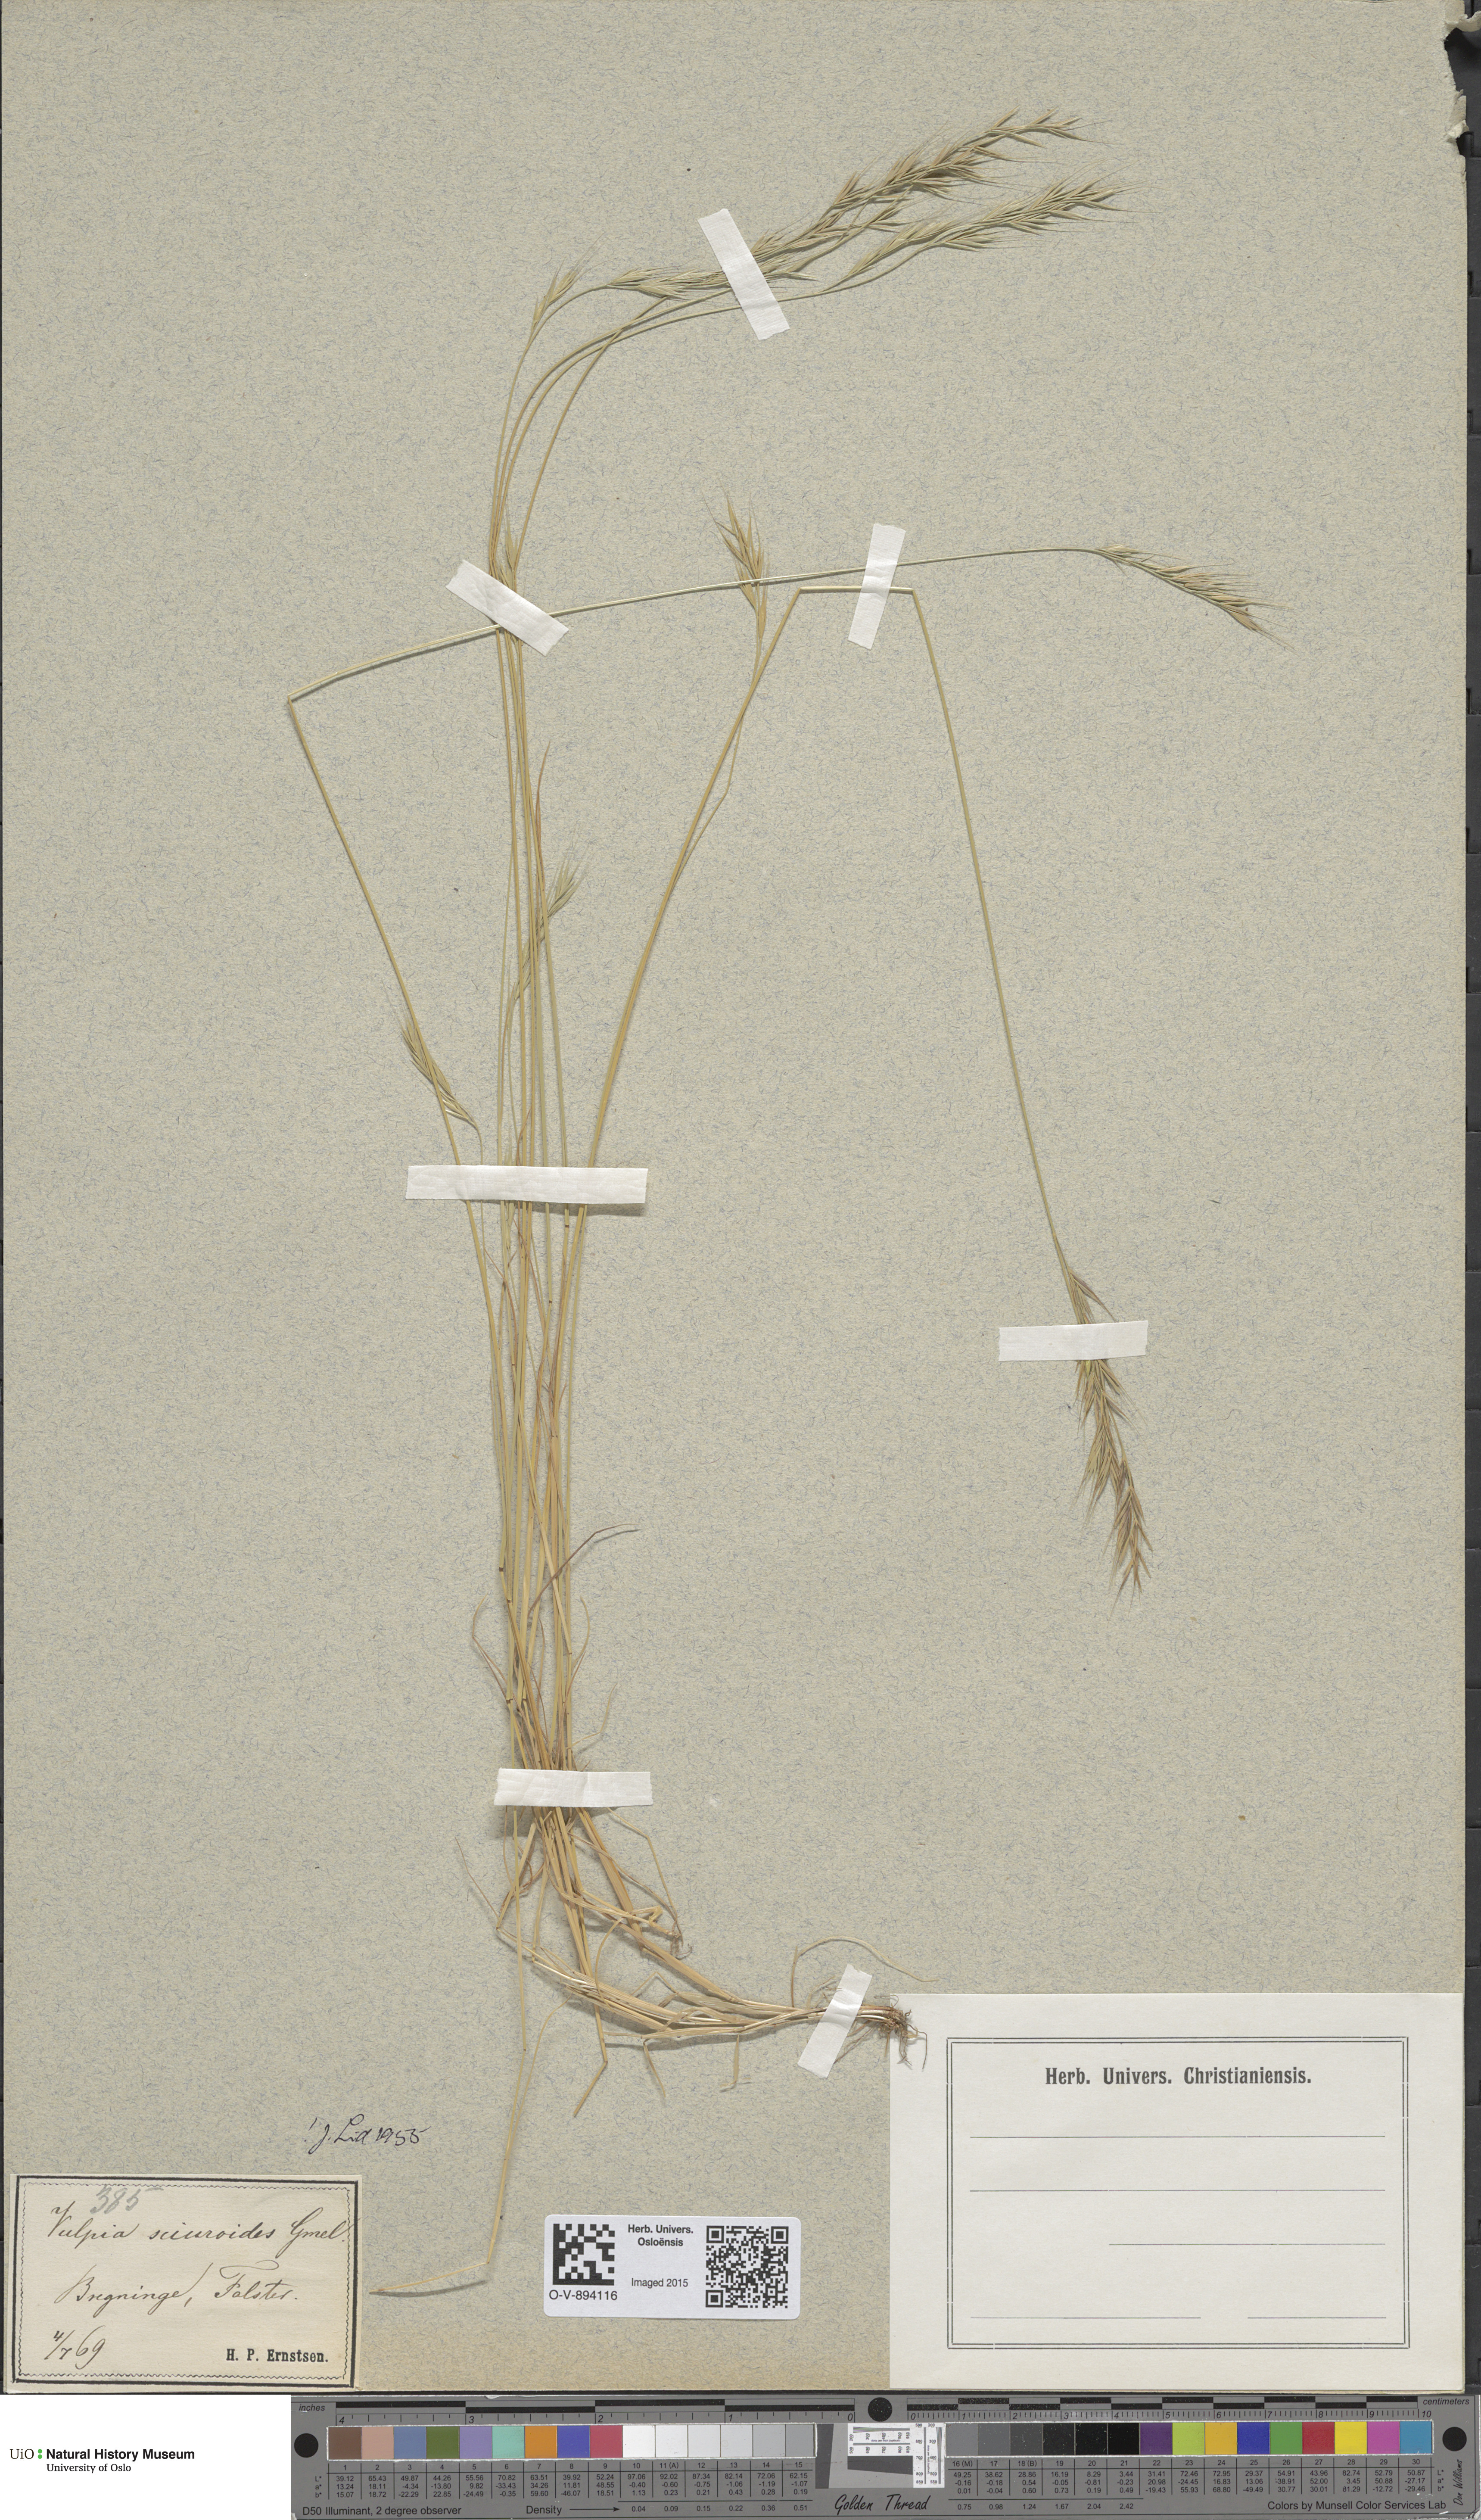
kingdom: Plantae
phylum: Tracheophyta
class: Liliopsida
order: Poales
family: Poaceae
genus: Festuca
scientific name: Festuca bromoides
